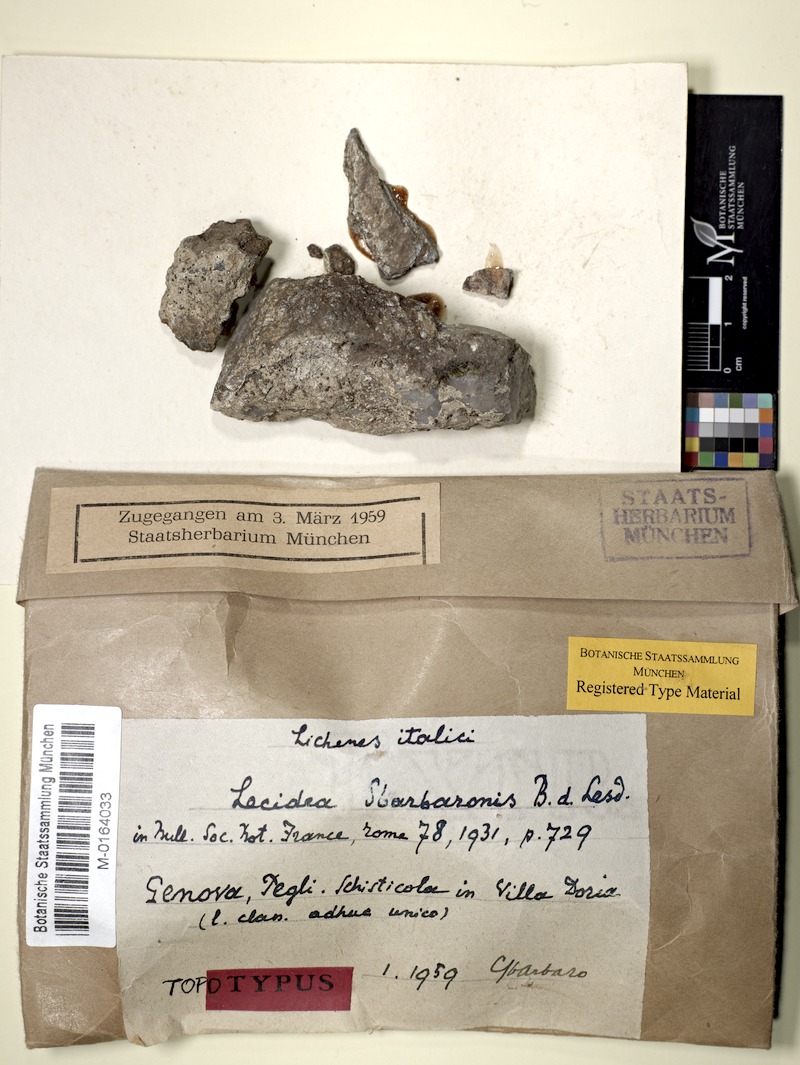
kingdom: Fungi
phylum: Ascomycota
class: Lecanoromycetes
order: Lecideales
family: Lecideaceae
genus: Lecidea
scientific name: Lecidea sbarbaronis
